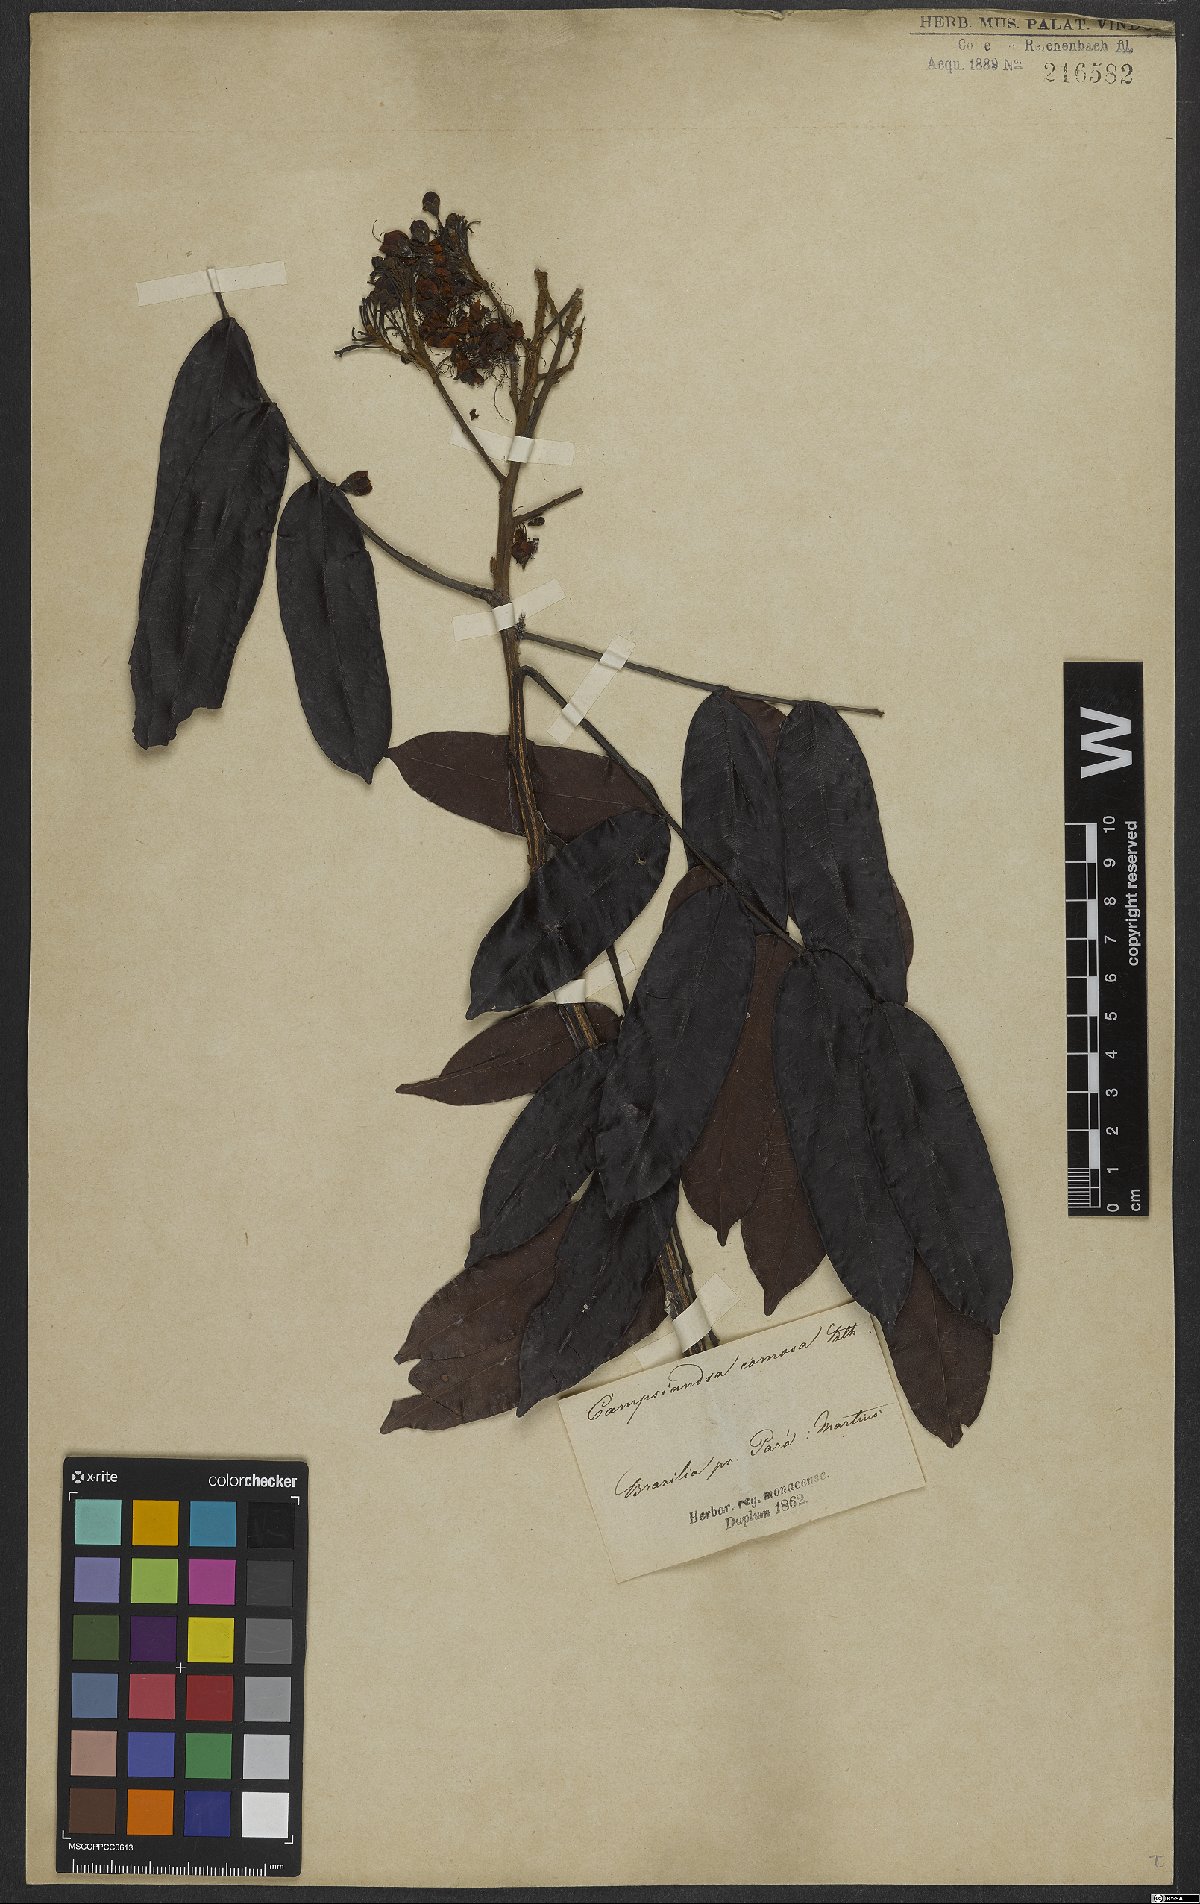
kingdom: Plantae
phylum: Tracheophyta
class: Magnoliopsida
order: Fabales
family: Fabaceae
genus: Campsiandra
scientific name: Campsiandra comosa
